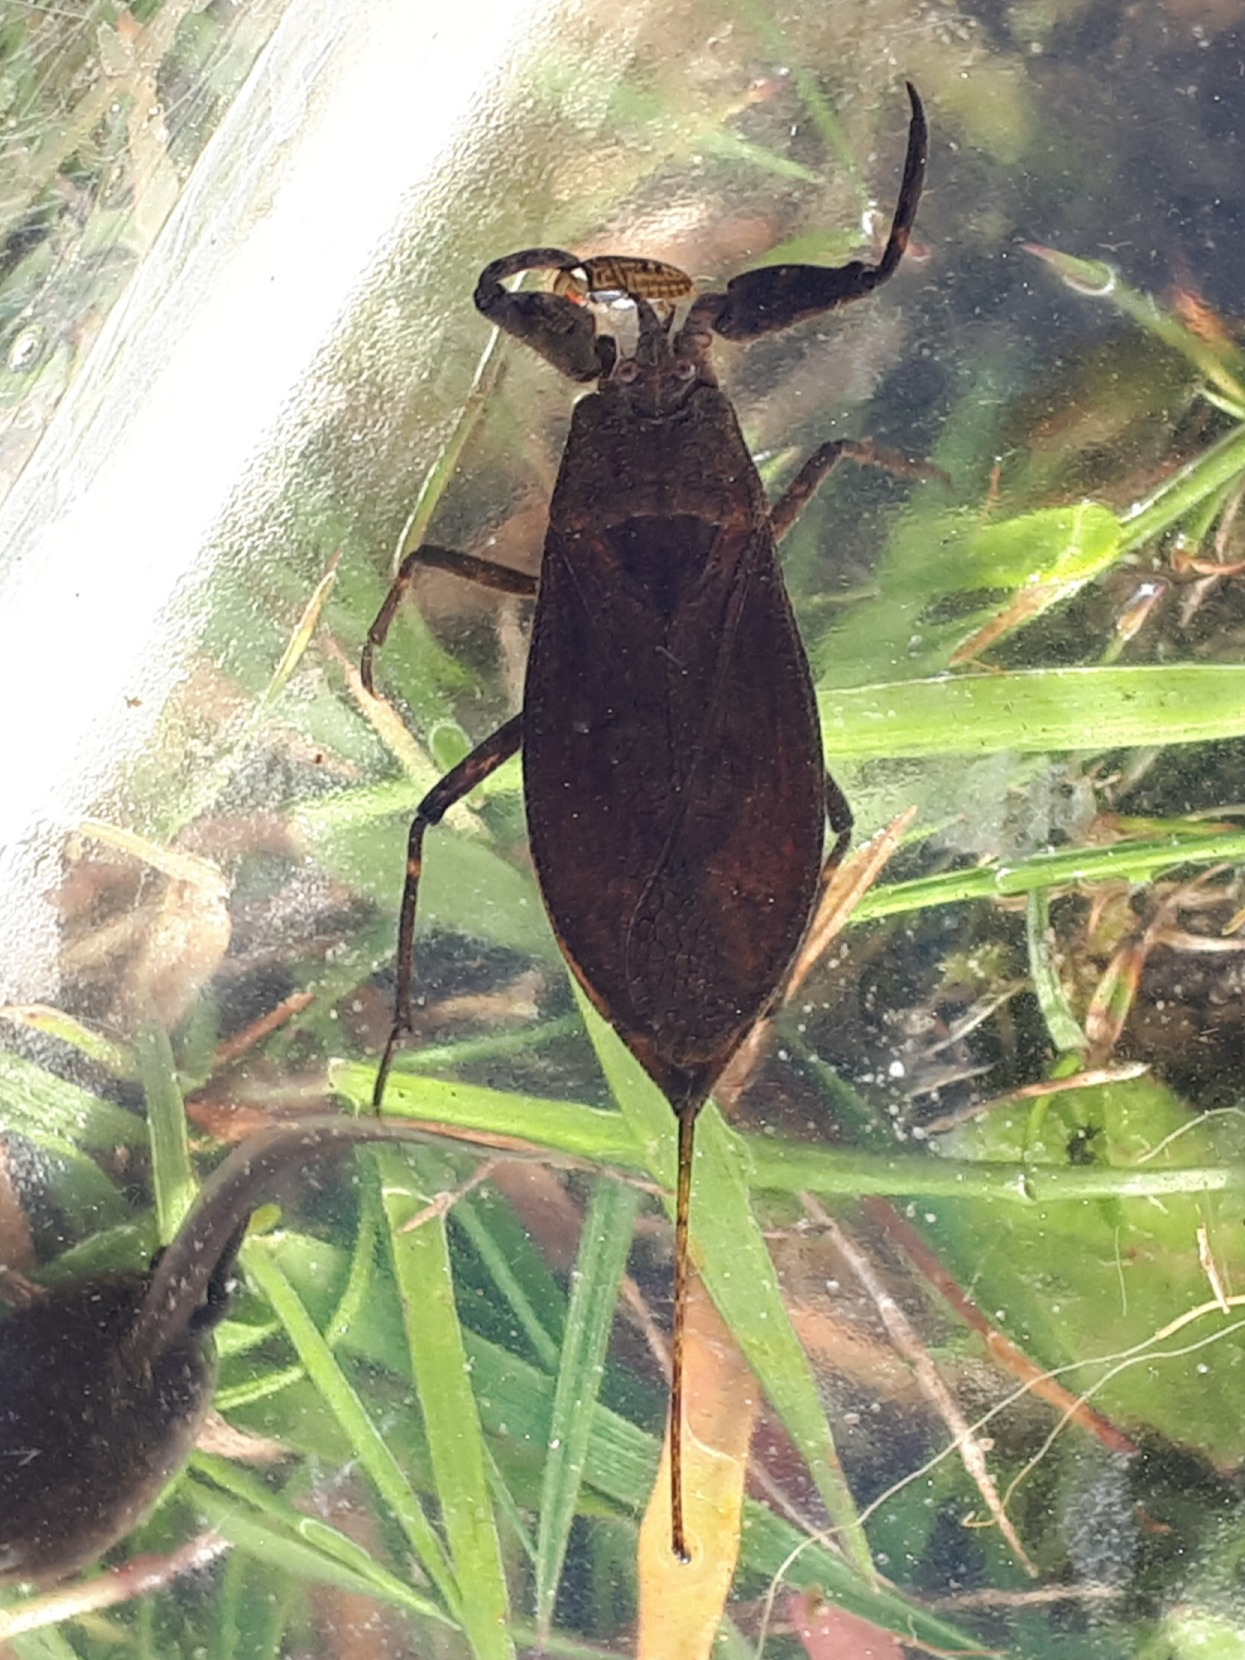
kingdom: Animalia
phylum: Arthropoda
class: Insecta
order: Hemiptera
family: Nepidae
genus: Nepa
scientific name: Nepa cinerea
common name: Skorpiontæge
